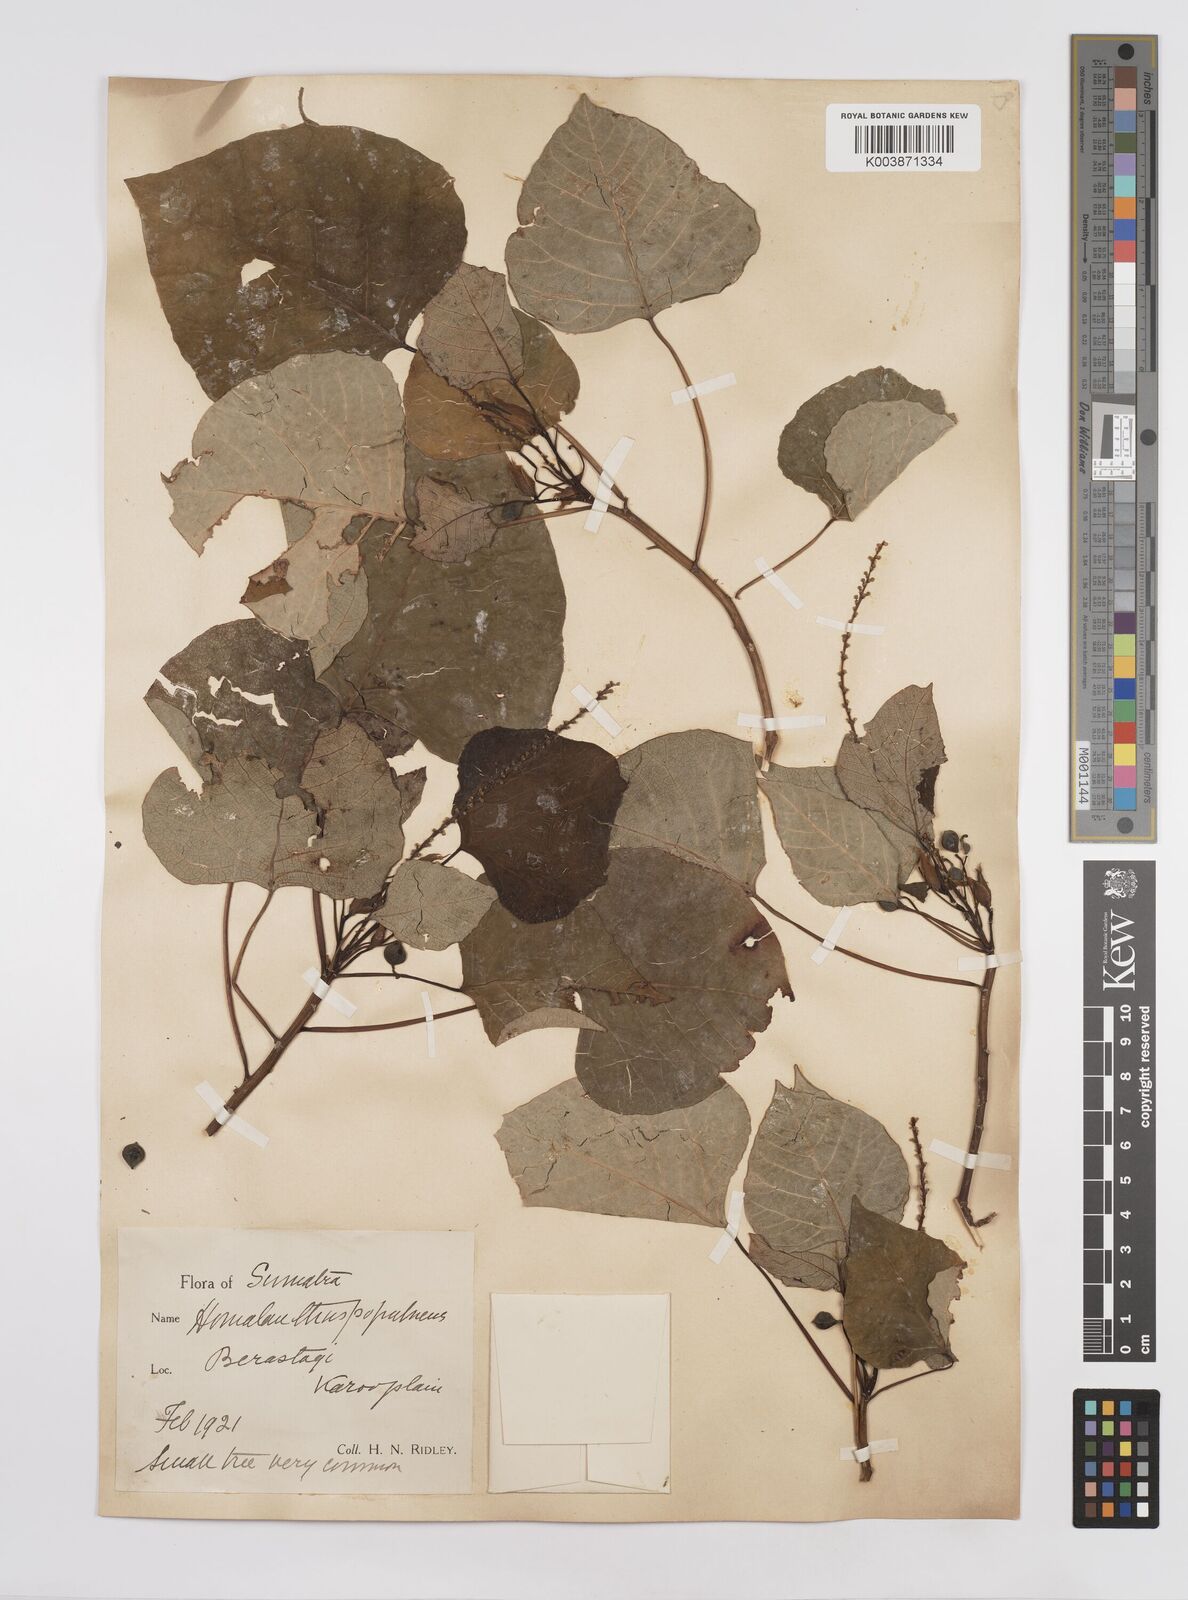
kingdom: Plantae
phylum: Tracheophyta
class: Magnoliopsida
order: Malpighiales
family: Euphorbiaceae
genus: Homalanthus
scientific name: Homalanthus populneus
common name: Spurge
